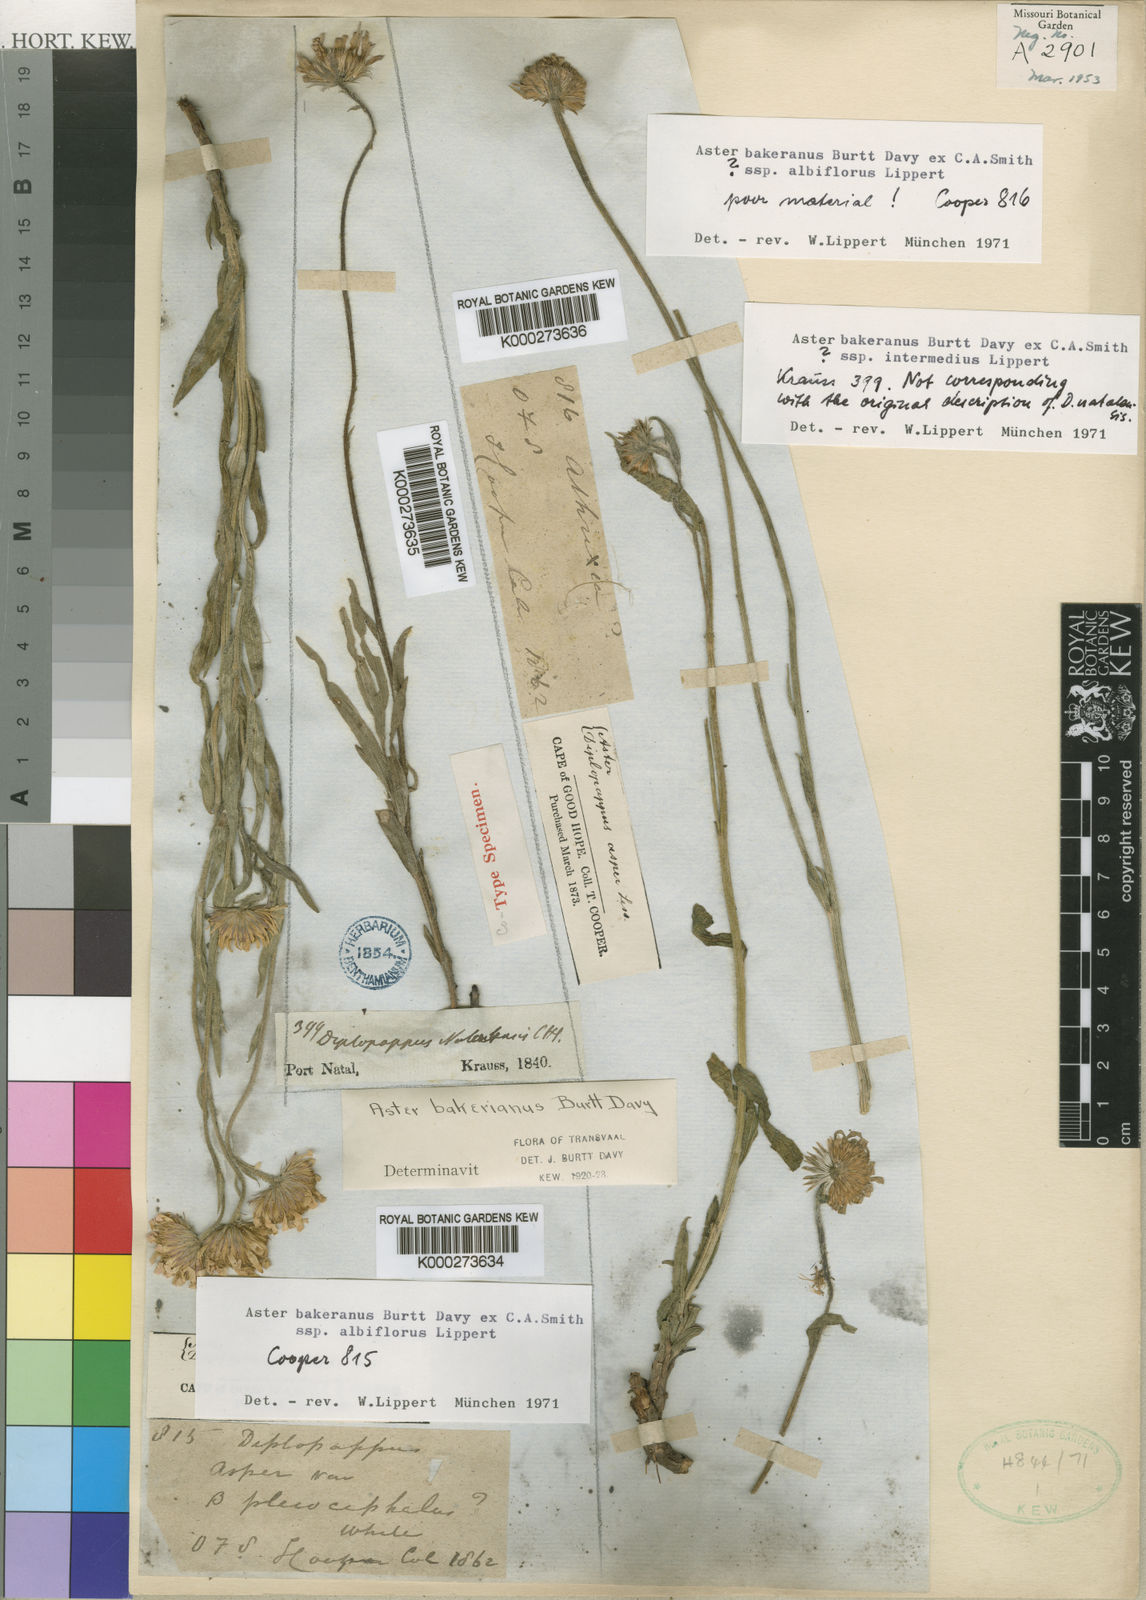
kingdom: Plantae
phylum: Tracheophyta
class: Magnoliopsida
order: Asterales
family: Asteraceae
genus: Aster
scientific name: Aster
